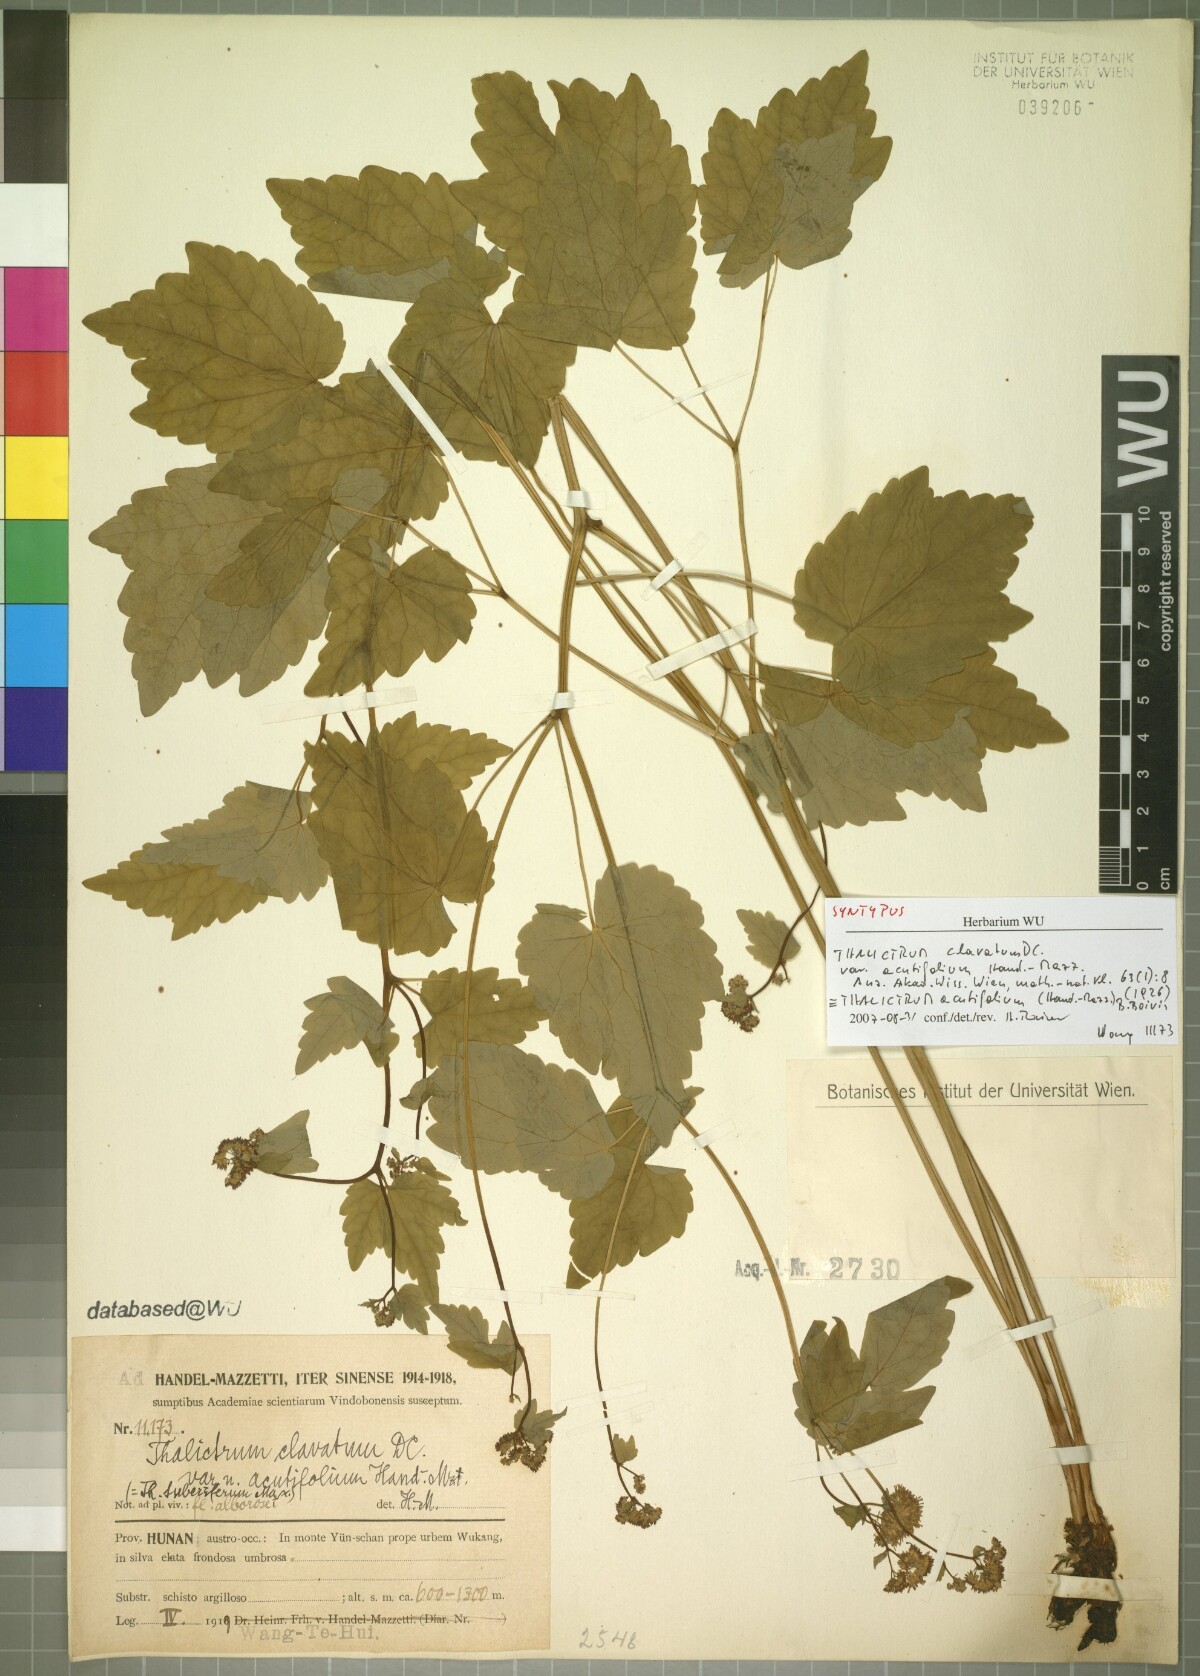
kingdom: Plantae
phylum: Tracheophyta
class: Magnoliopsida
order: Ranunculales
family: Ranunculaceae
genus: Thalictrum
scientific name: Thalictrum acutifolium
